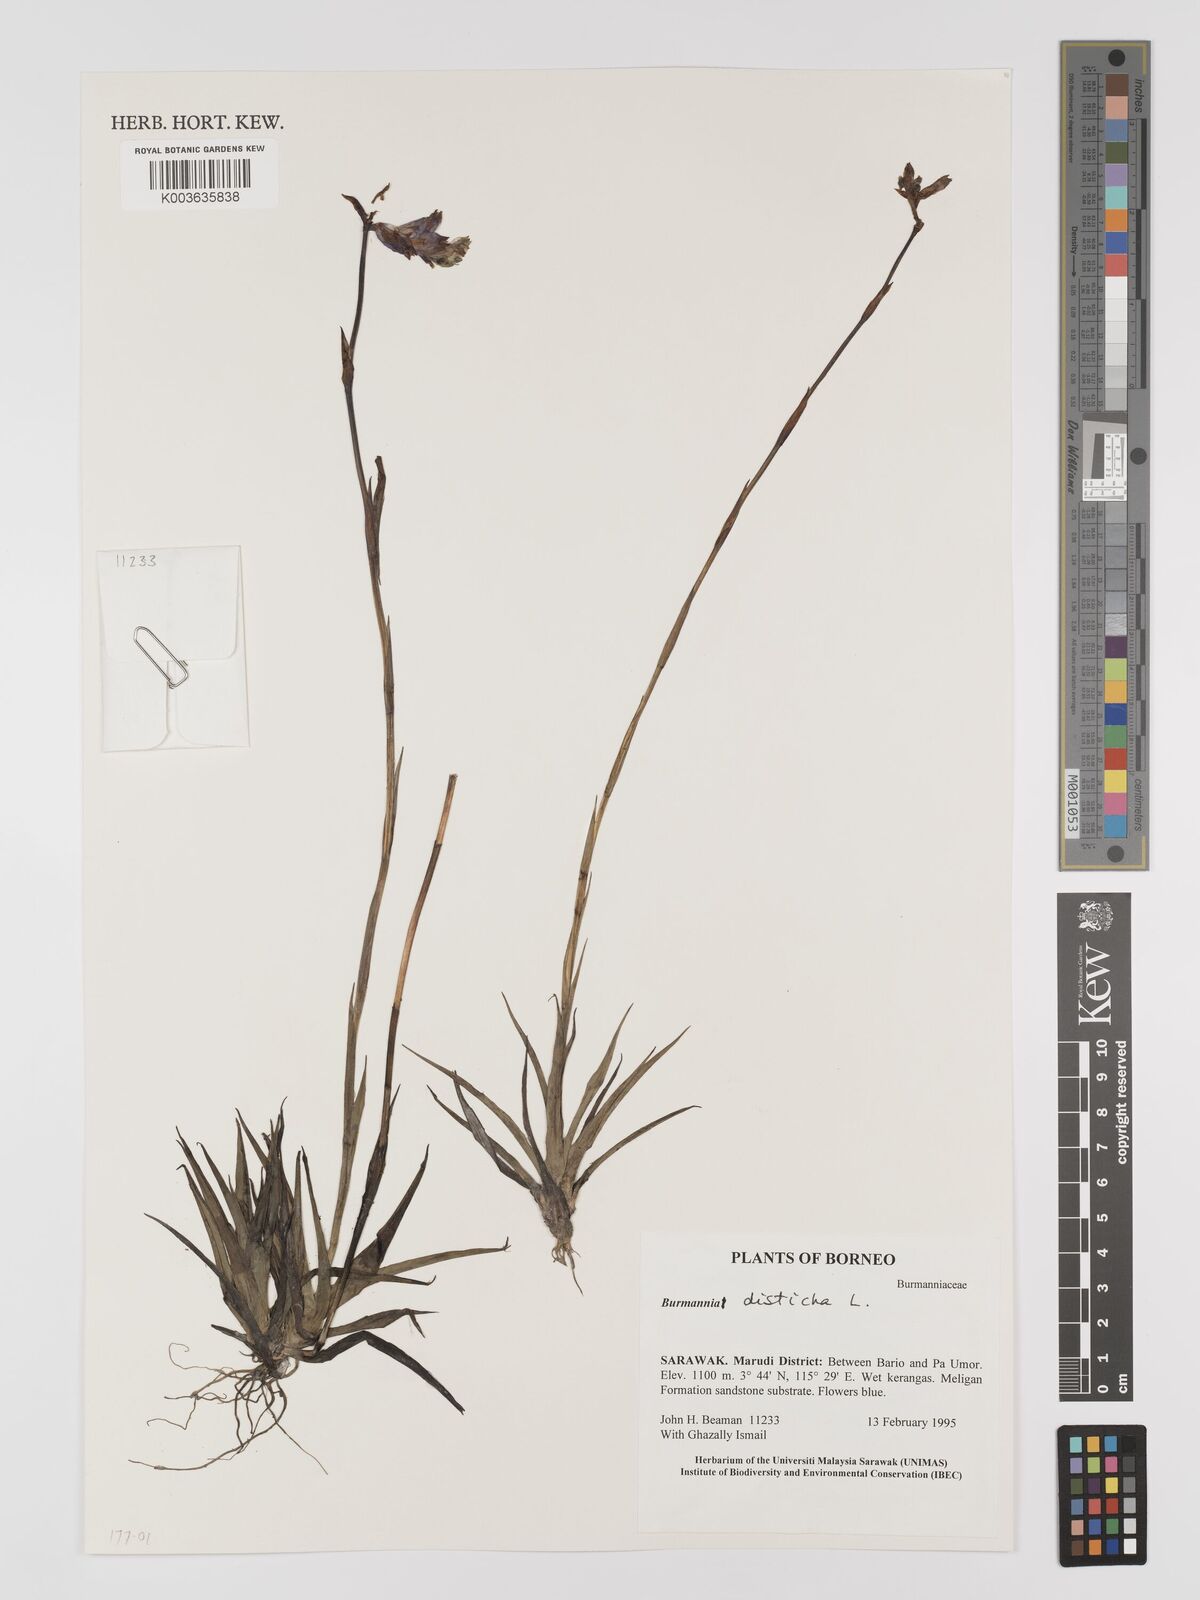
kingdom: Plantae
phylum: Tracheophyta
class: Liliopsida
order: Dioscoreales
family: Burmanniaceae
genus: Burmannia
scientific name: Burmannia disticha
